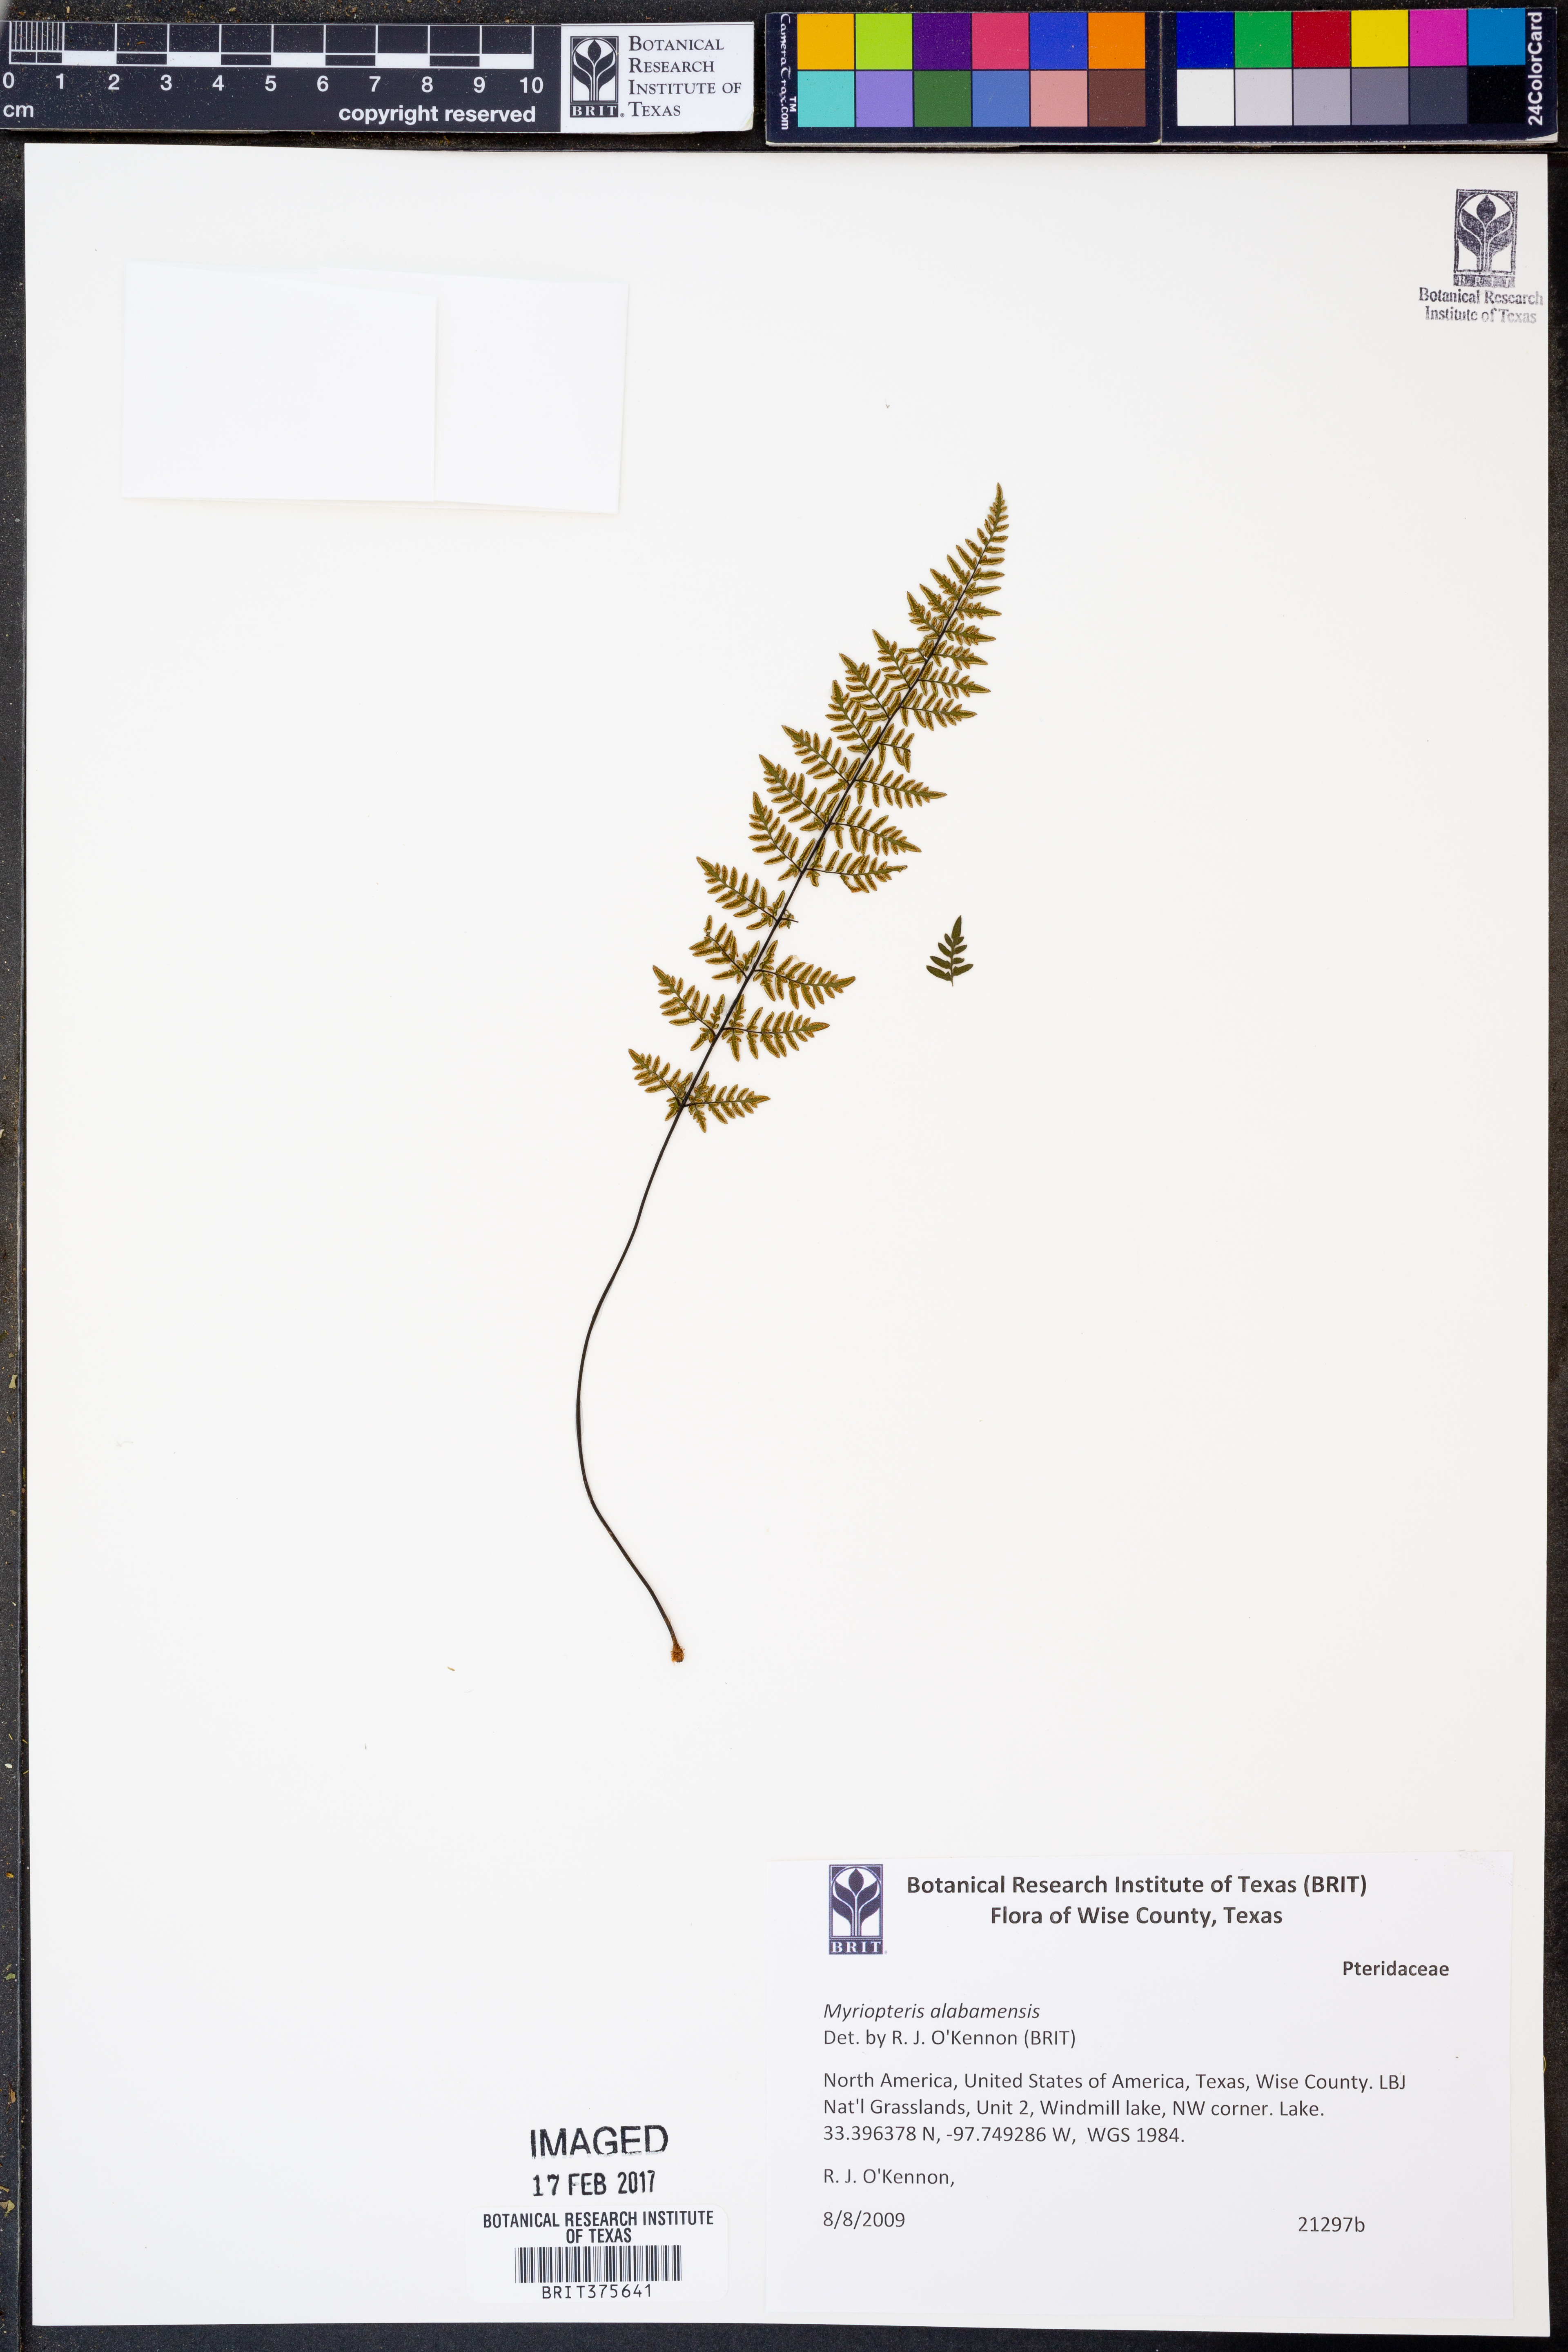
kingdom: Plantae
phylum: Tracheophyta
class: Polypodiopsida
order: Polypodiales
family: Pteridaceae
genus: Myriopteris
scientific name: Myriopteris alabamensis
